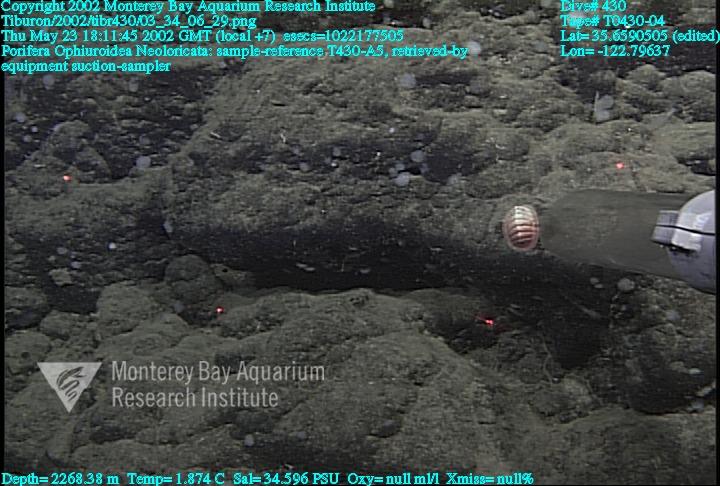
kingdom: Animalia
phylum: Porifera
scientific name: Porifera
